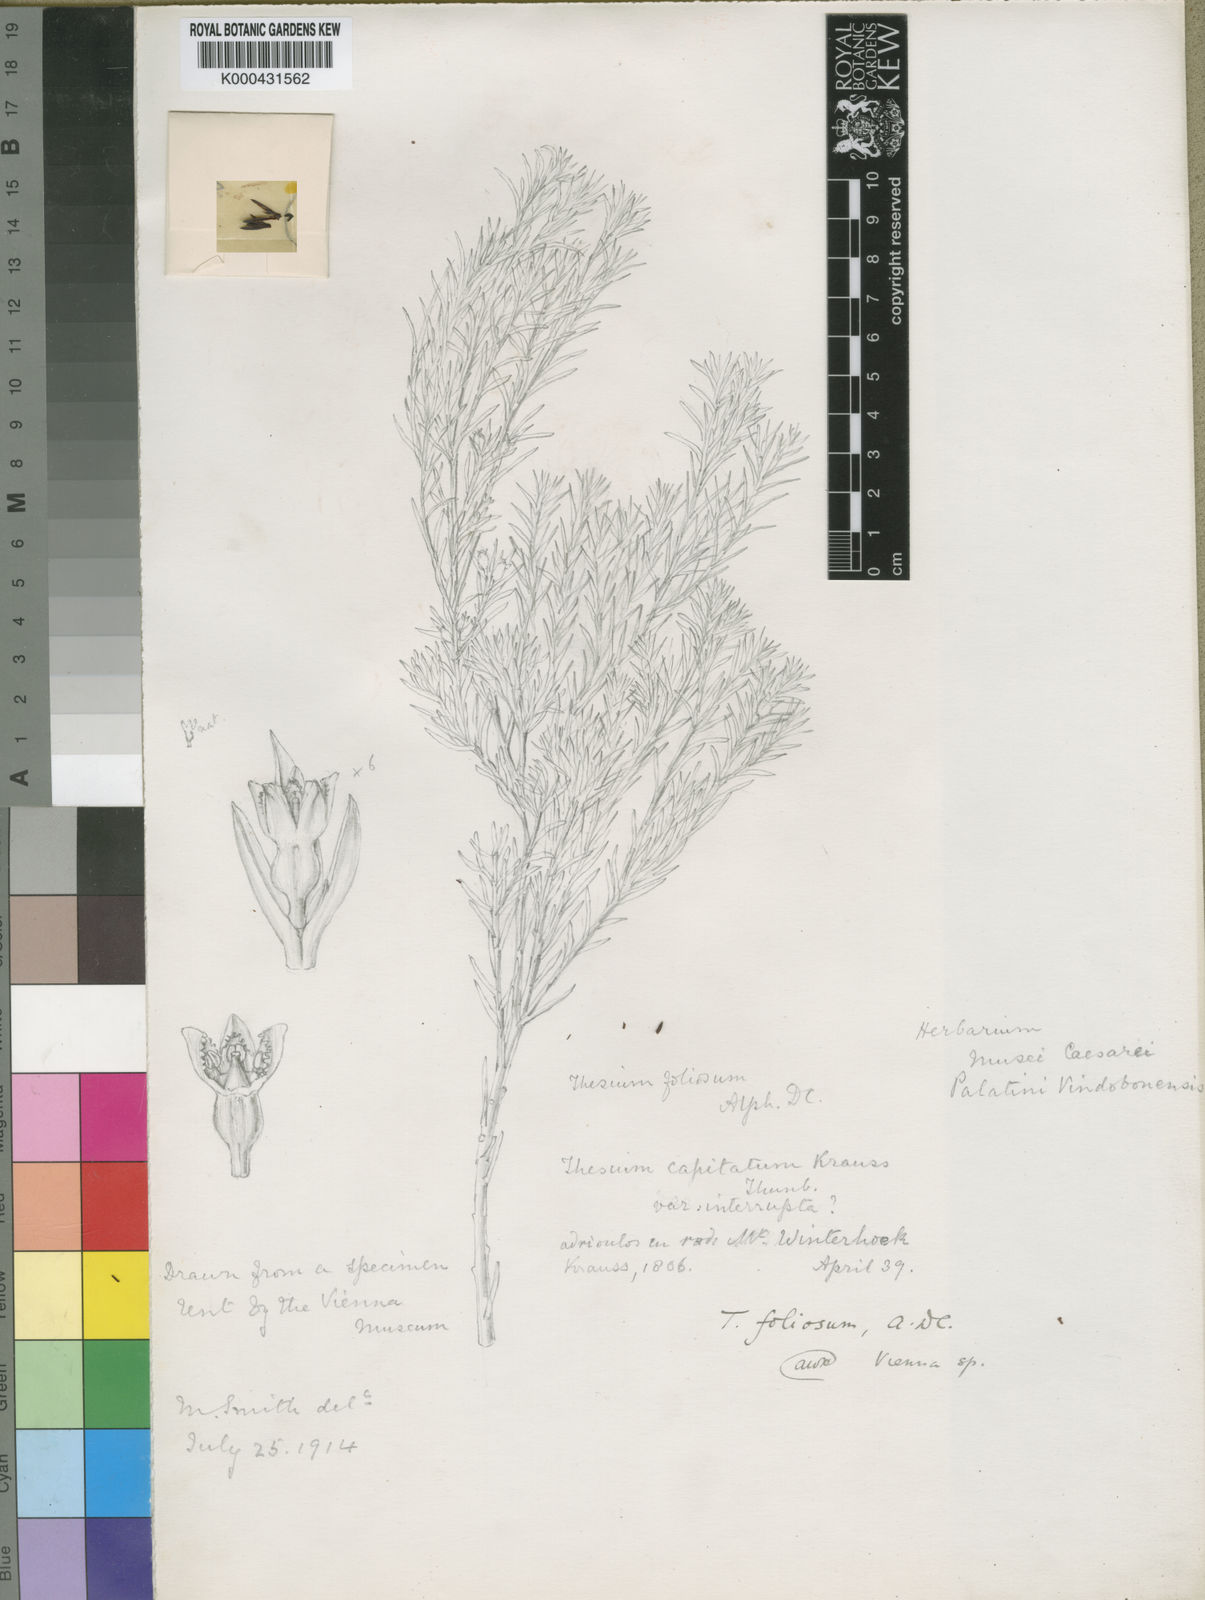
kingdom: Plantae
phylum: Tracheophyta
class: Magnoliopsida
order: Santalales
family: Thesiaceae
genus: Thesium
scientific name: Thesium foliosum
